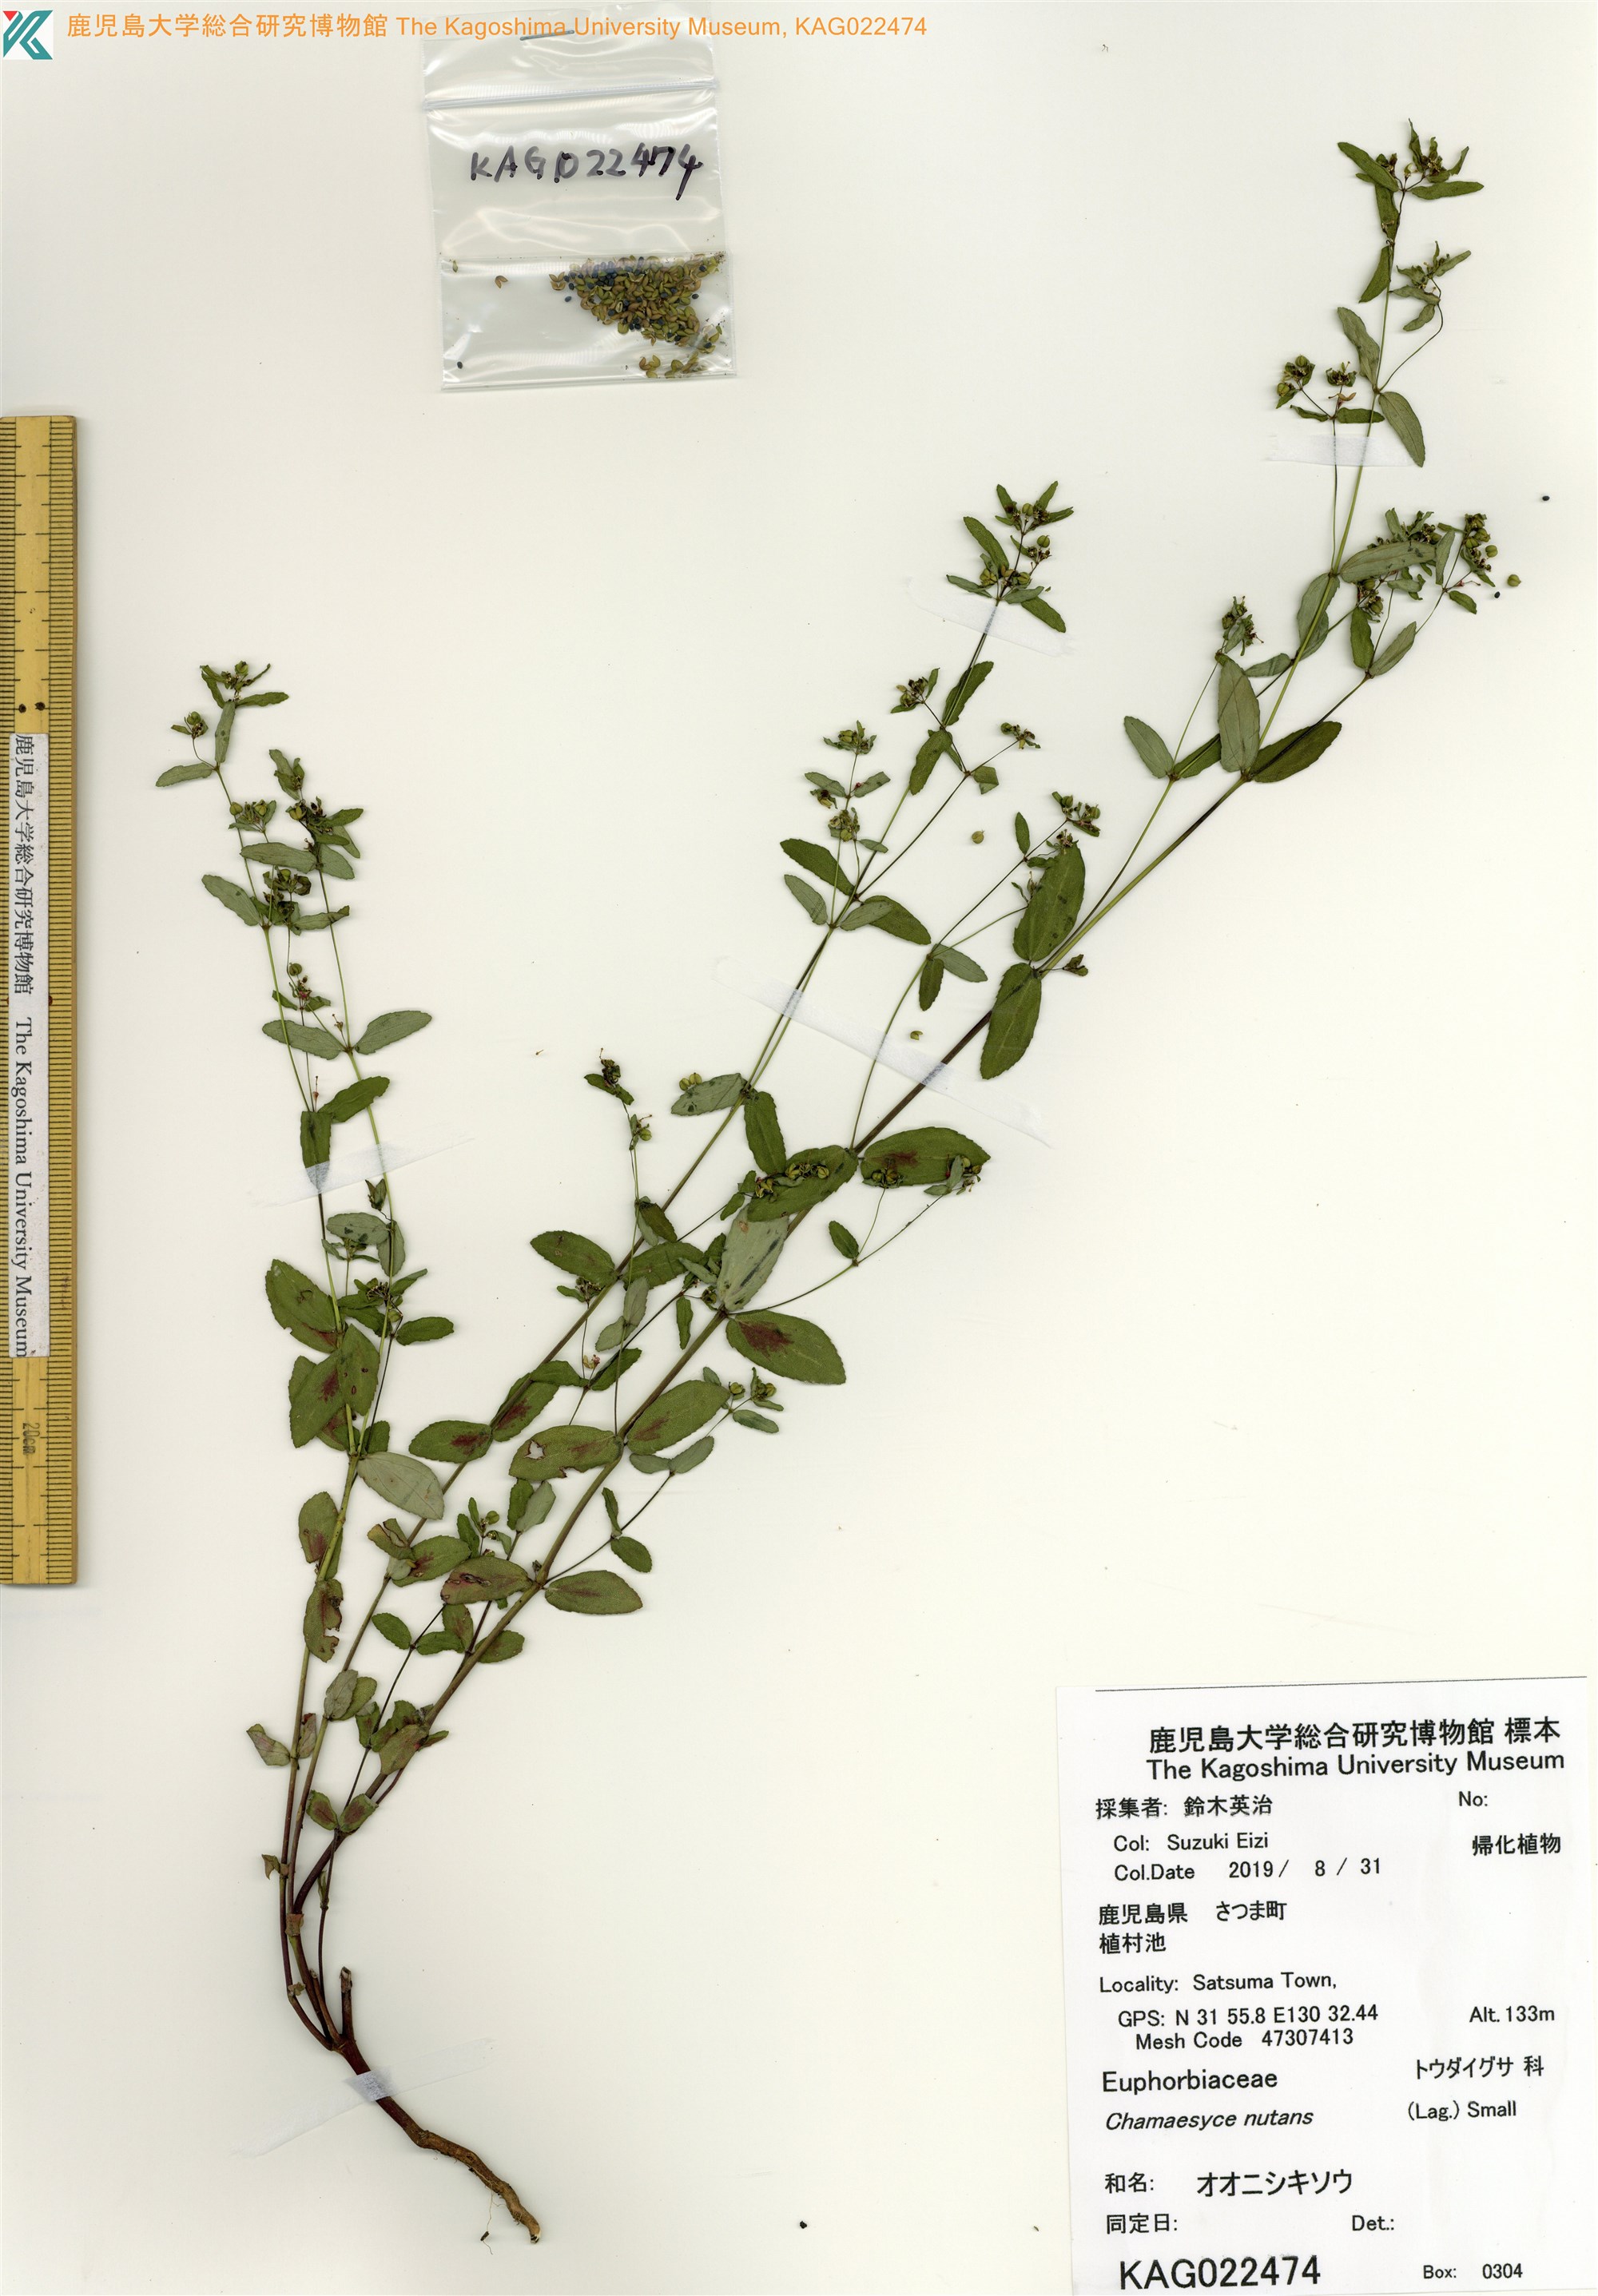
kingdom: Plantae
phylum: Tracheophyta
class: Magnoliopsida
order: Malpighiales
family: Euphorbiaceae
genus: Euphorbia
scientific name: Euphorbia nutans
